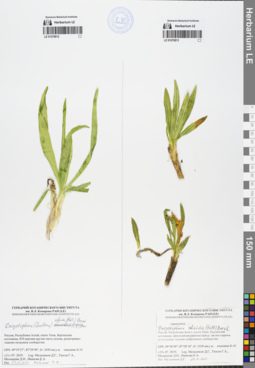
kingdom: Plantae
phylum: Tracheophyta
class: Magnoliopsida
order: Gentianales
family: Gentianaceae
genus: Gentiana
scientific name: Gentiana algida
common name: Arctic gentian
